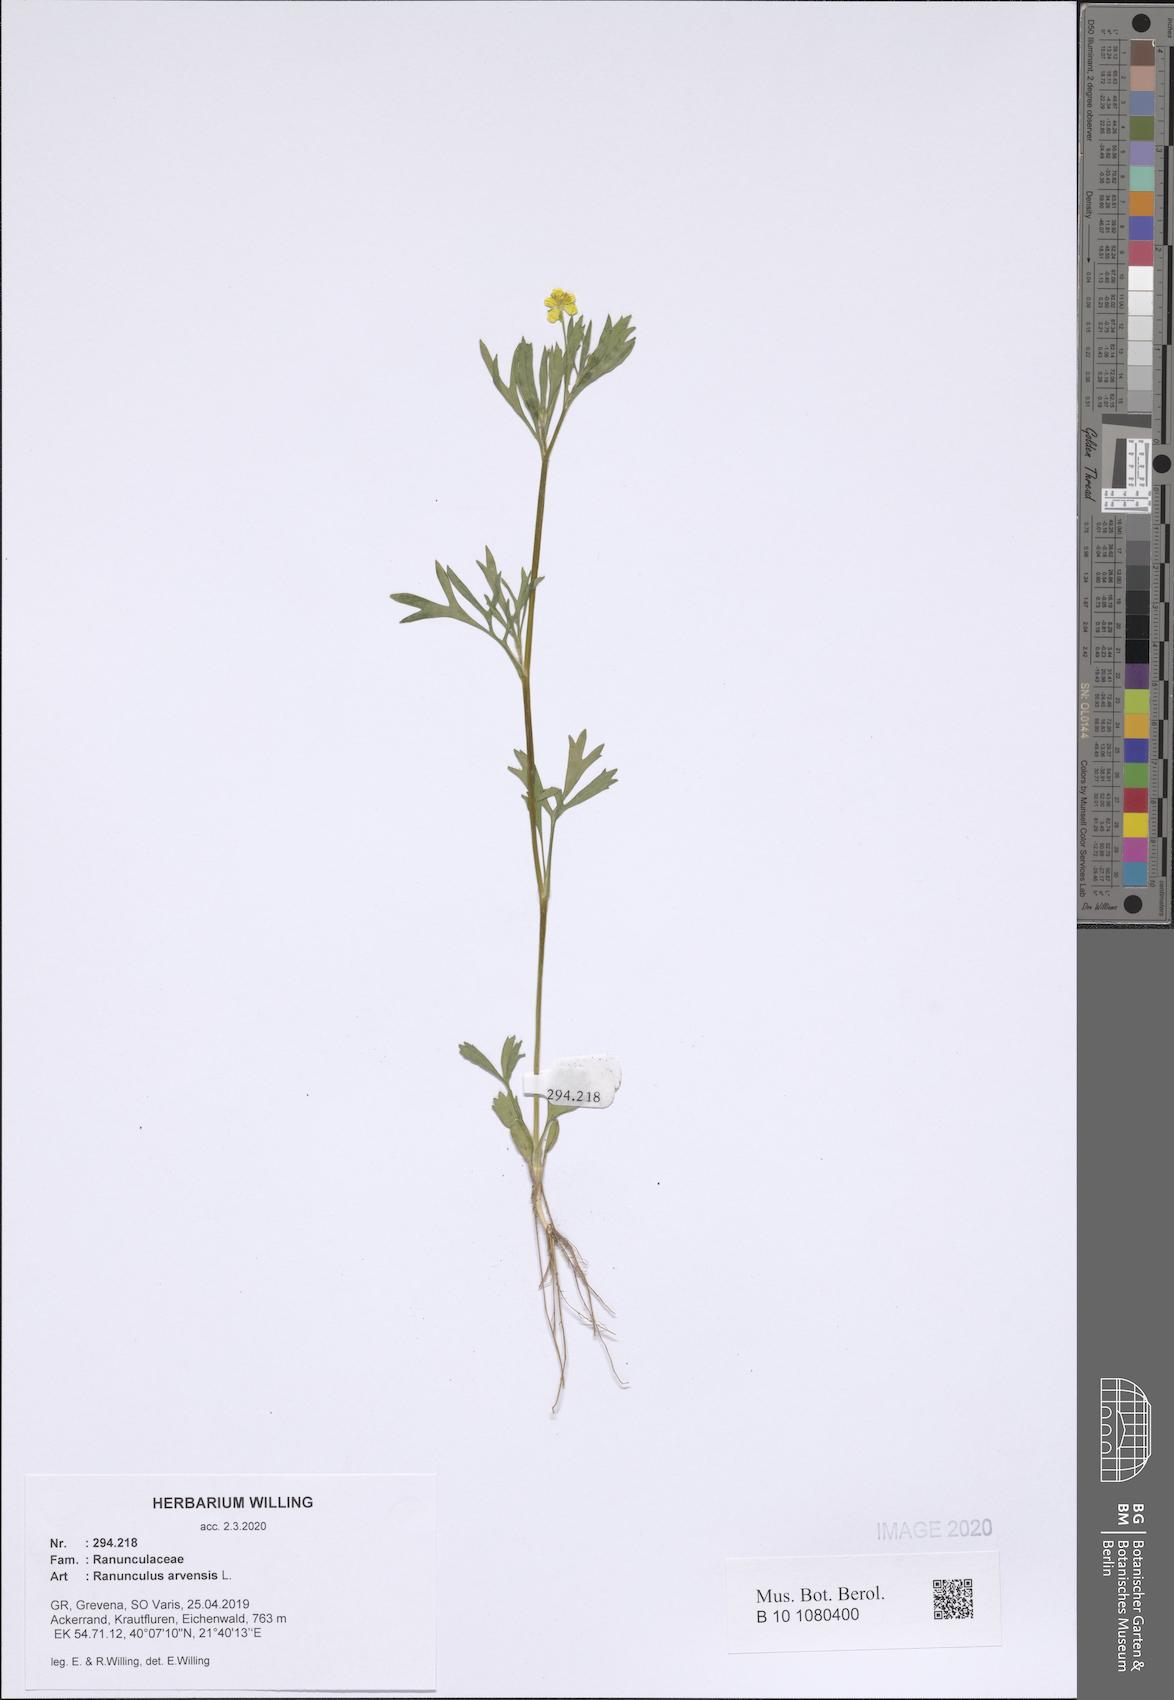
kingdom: Plantae
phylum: Tracheophyta
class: Magnoliopsida
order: Ranunculales
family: Ranunculaceae
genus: Ranunculus
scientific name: Ranunculus arvensis
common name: Corn buttercup
